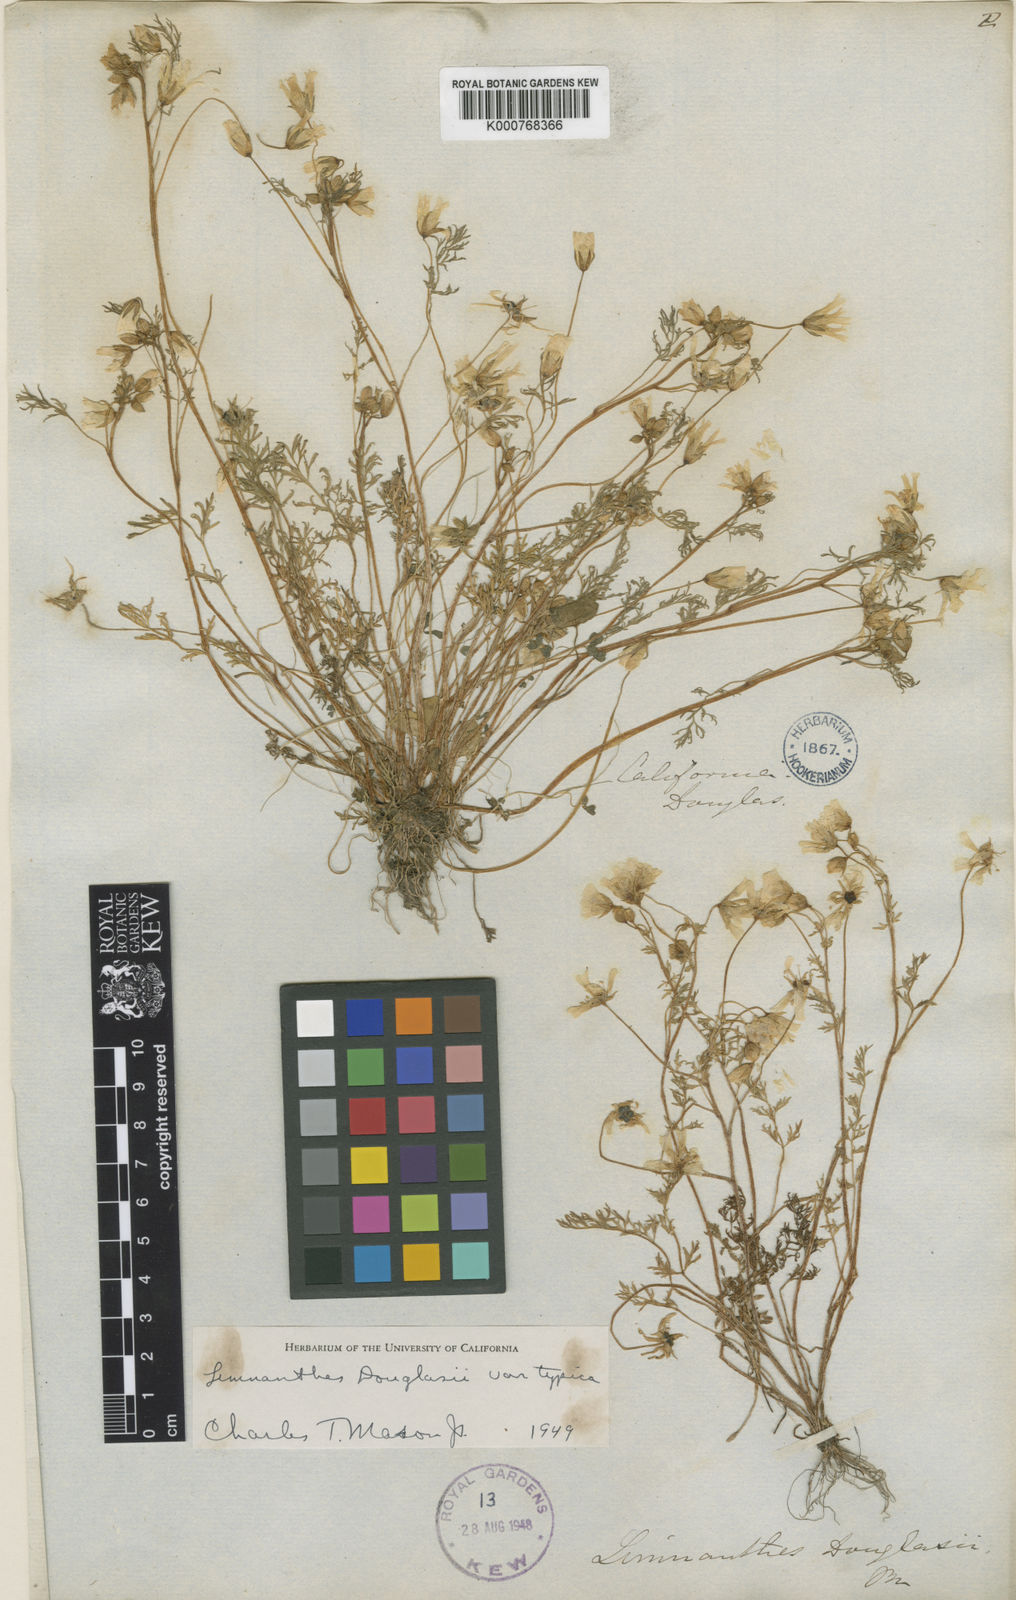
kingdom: Plantae
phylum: Tracheophyta
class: Magnoliopsida
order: Brassicales
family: Limnanthaceae
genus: Limnanthes
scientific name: Limnanthes douglasii
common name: Meadow-foam
